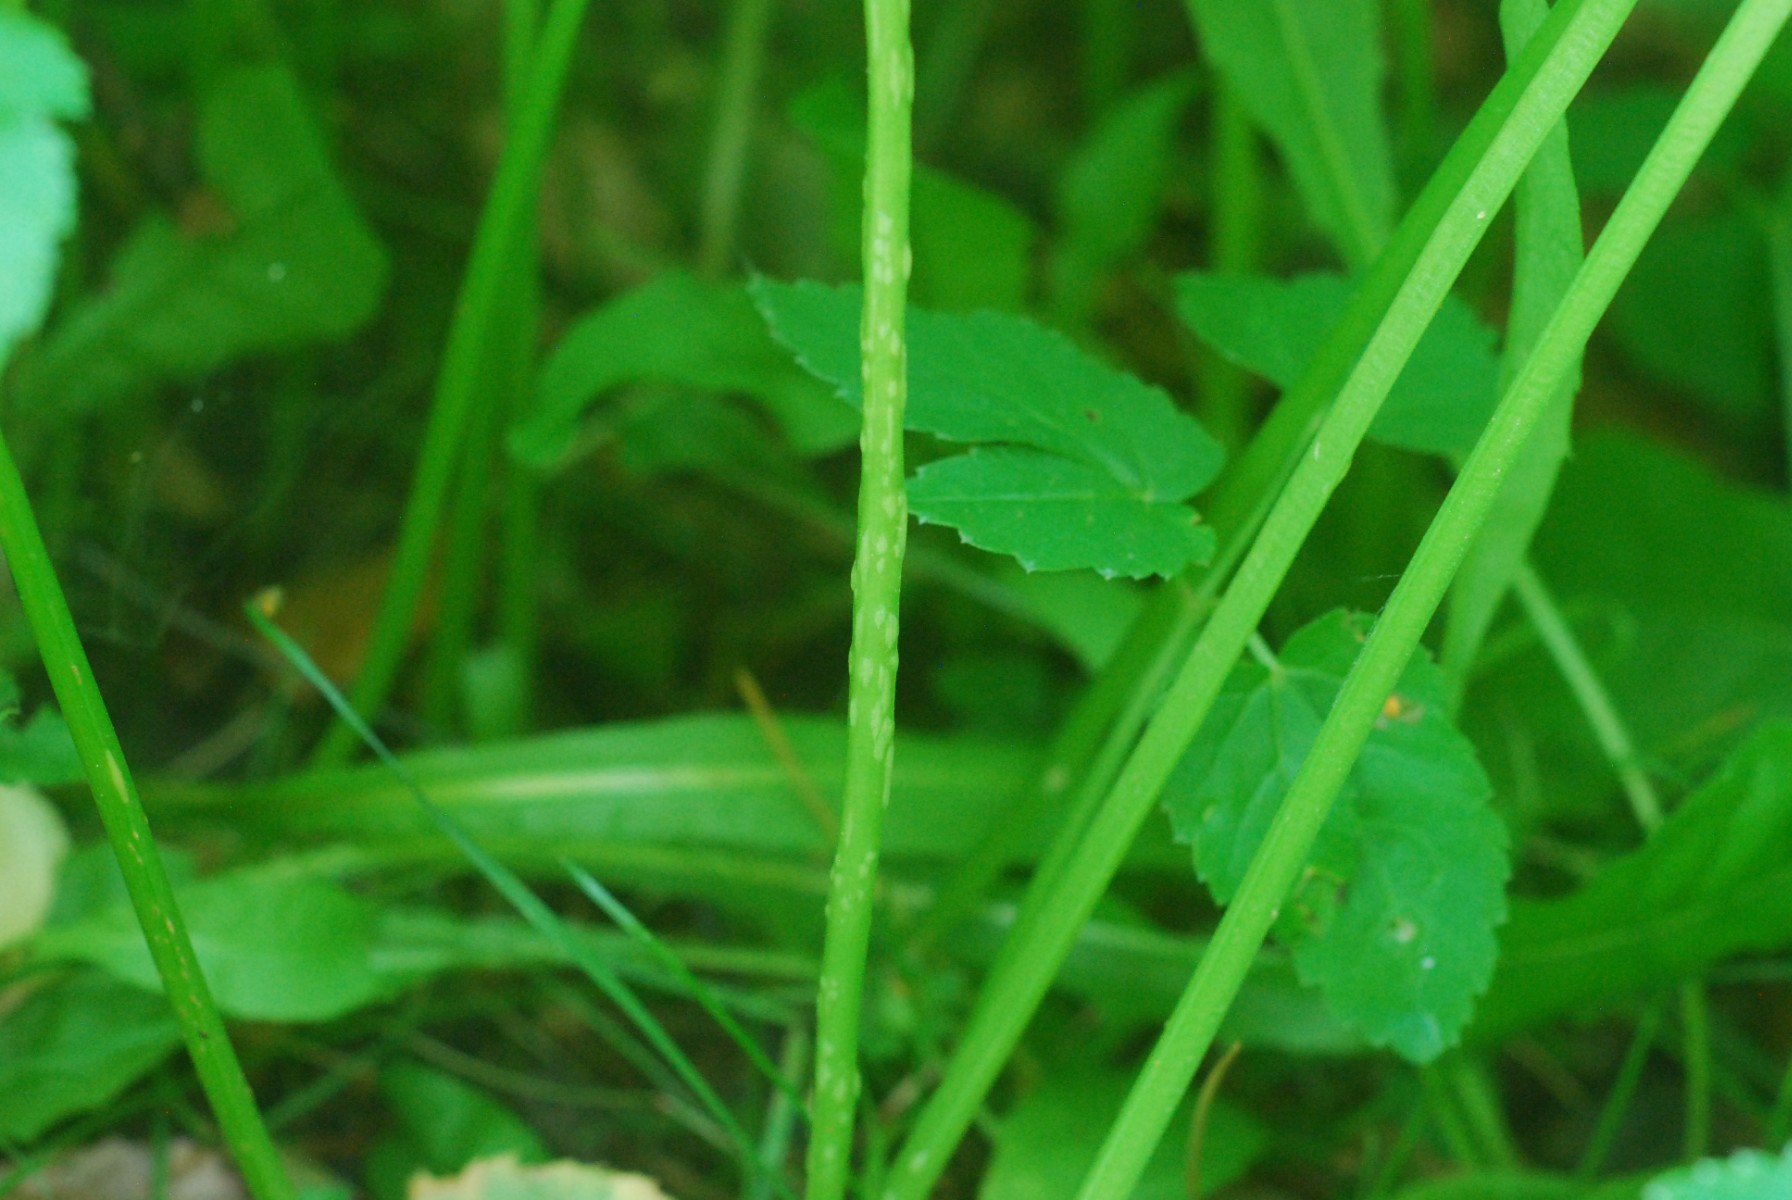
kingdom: Fungi
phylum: Ascomycota
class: Taphrinomycetes
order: Taphrinales
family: Taphrinaceae
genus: Protomyces
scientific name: Protomyces macrosporus
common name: skvalderkål-vablesæk
